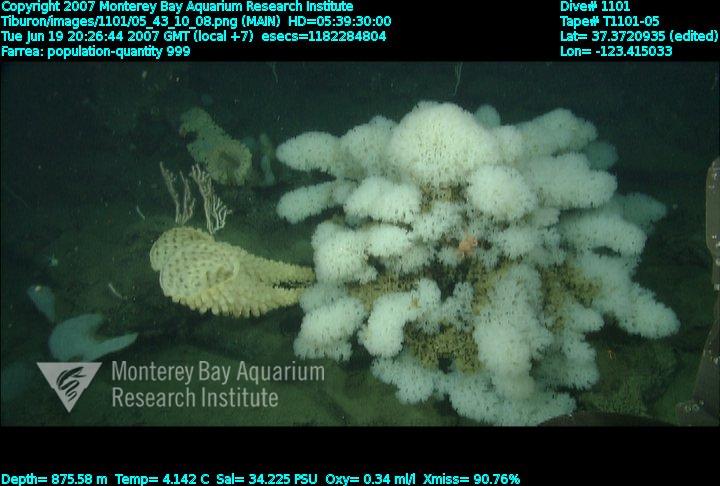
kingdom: Animalia
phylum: Porifera
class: Hexactinellida
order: Sceptrulophora
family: Farreidae
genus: Farrea
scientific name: Farrea
